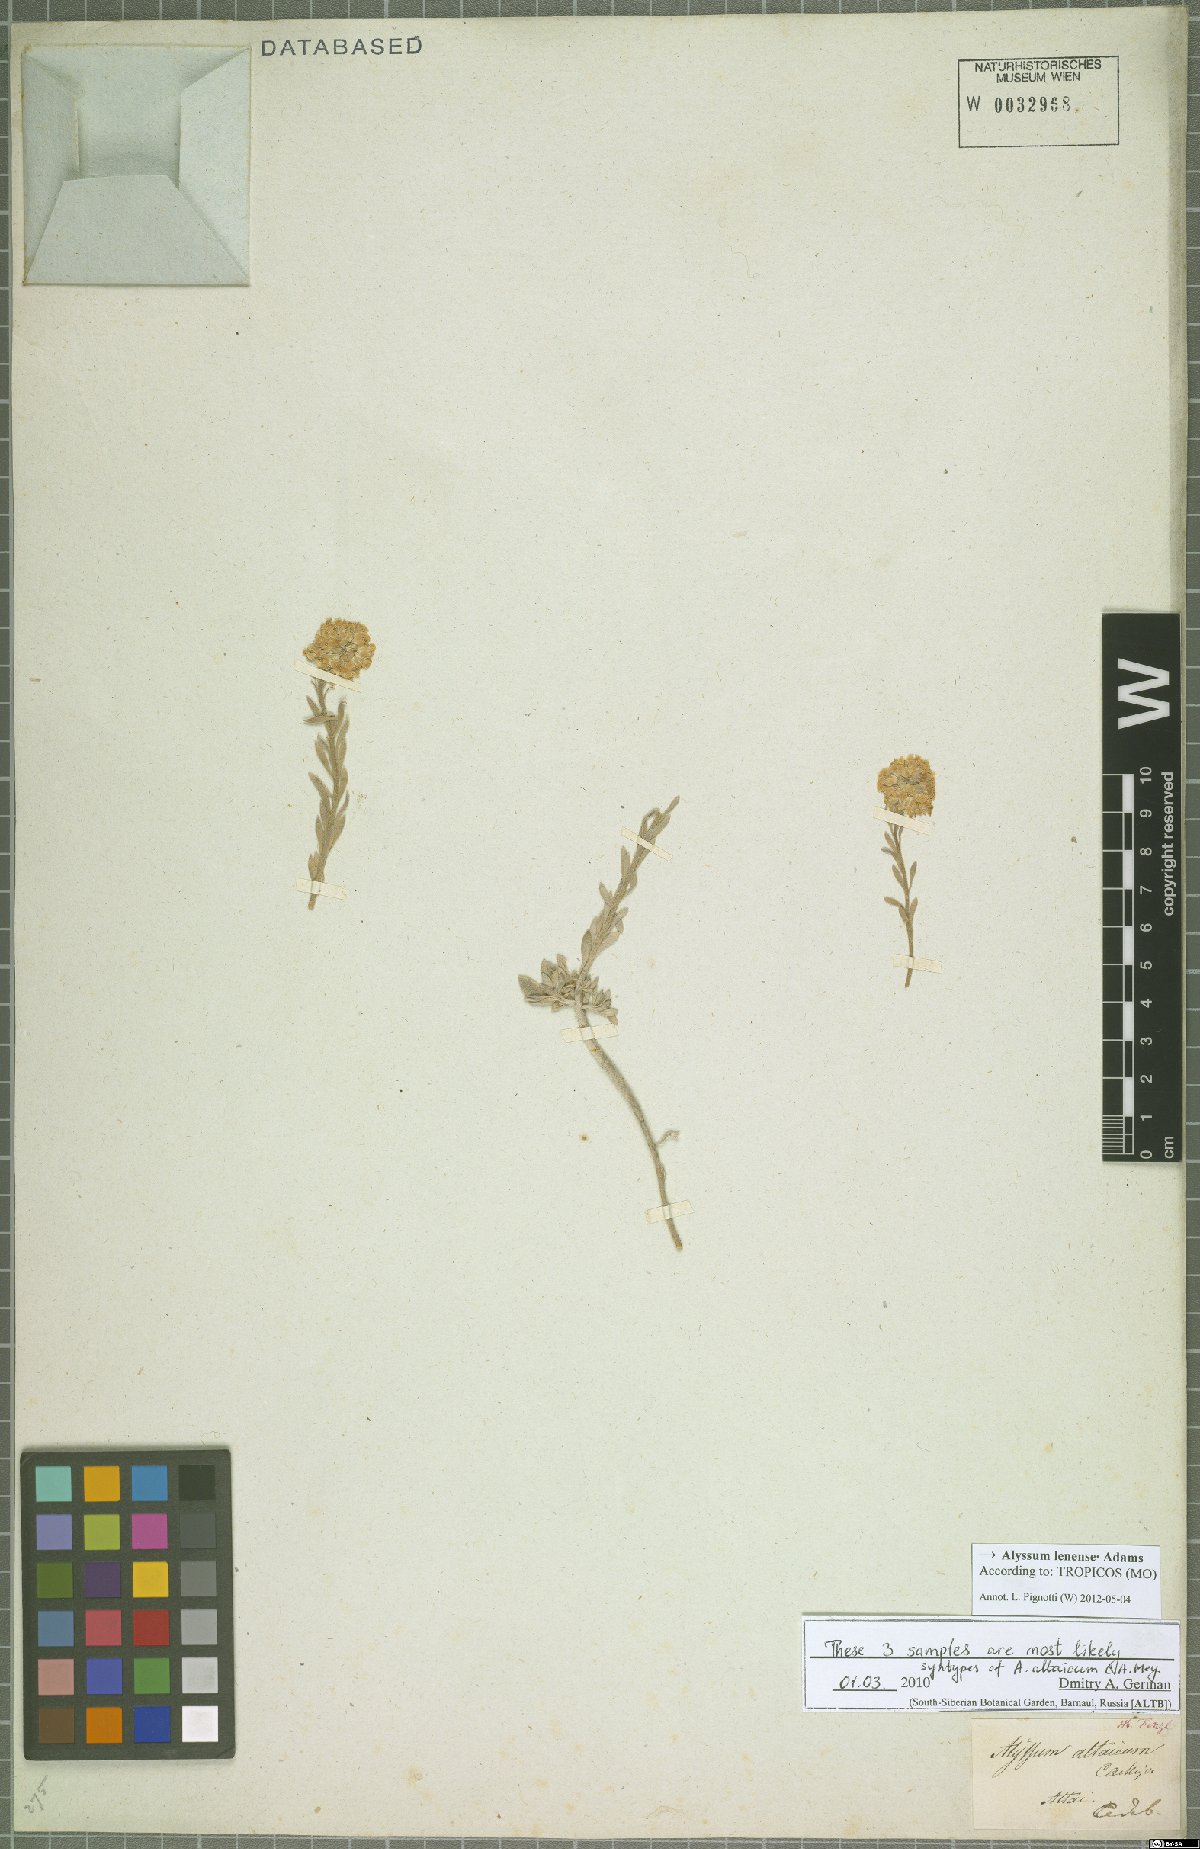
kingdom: Plantae
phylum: Tracheophyta
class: Magnoliopsida
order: Brassicales
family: Brassicaceae
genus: Alyssum
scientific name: Alyssum lenense
